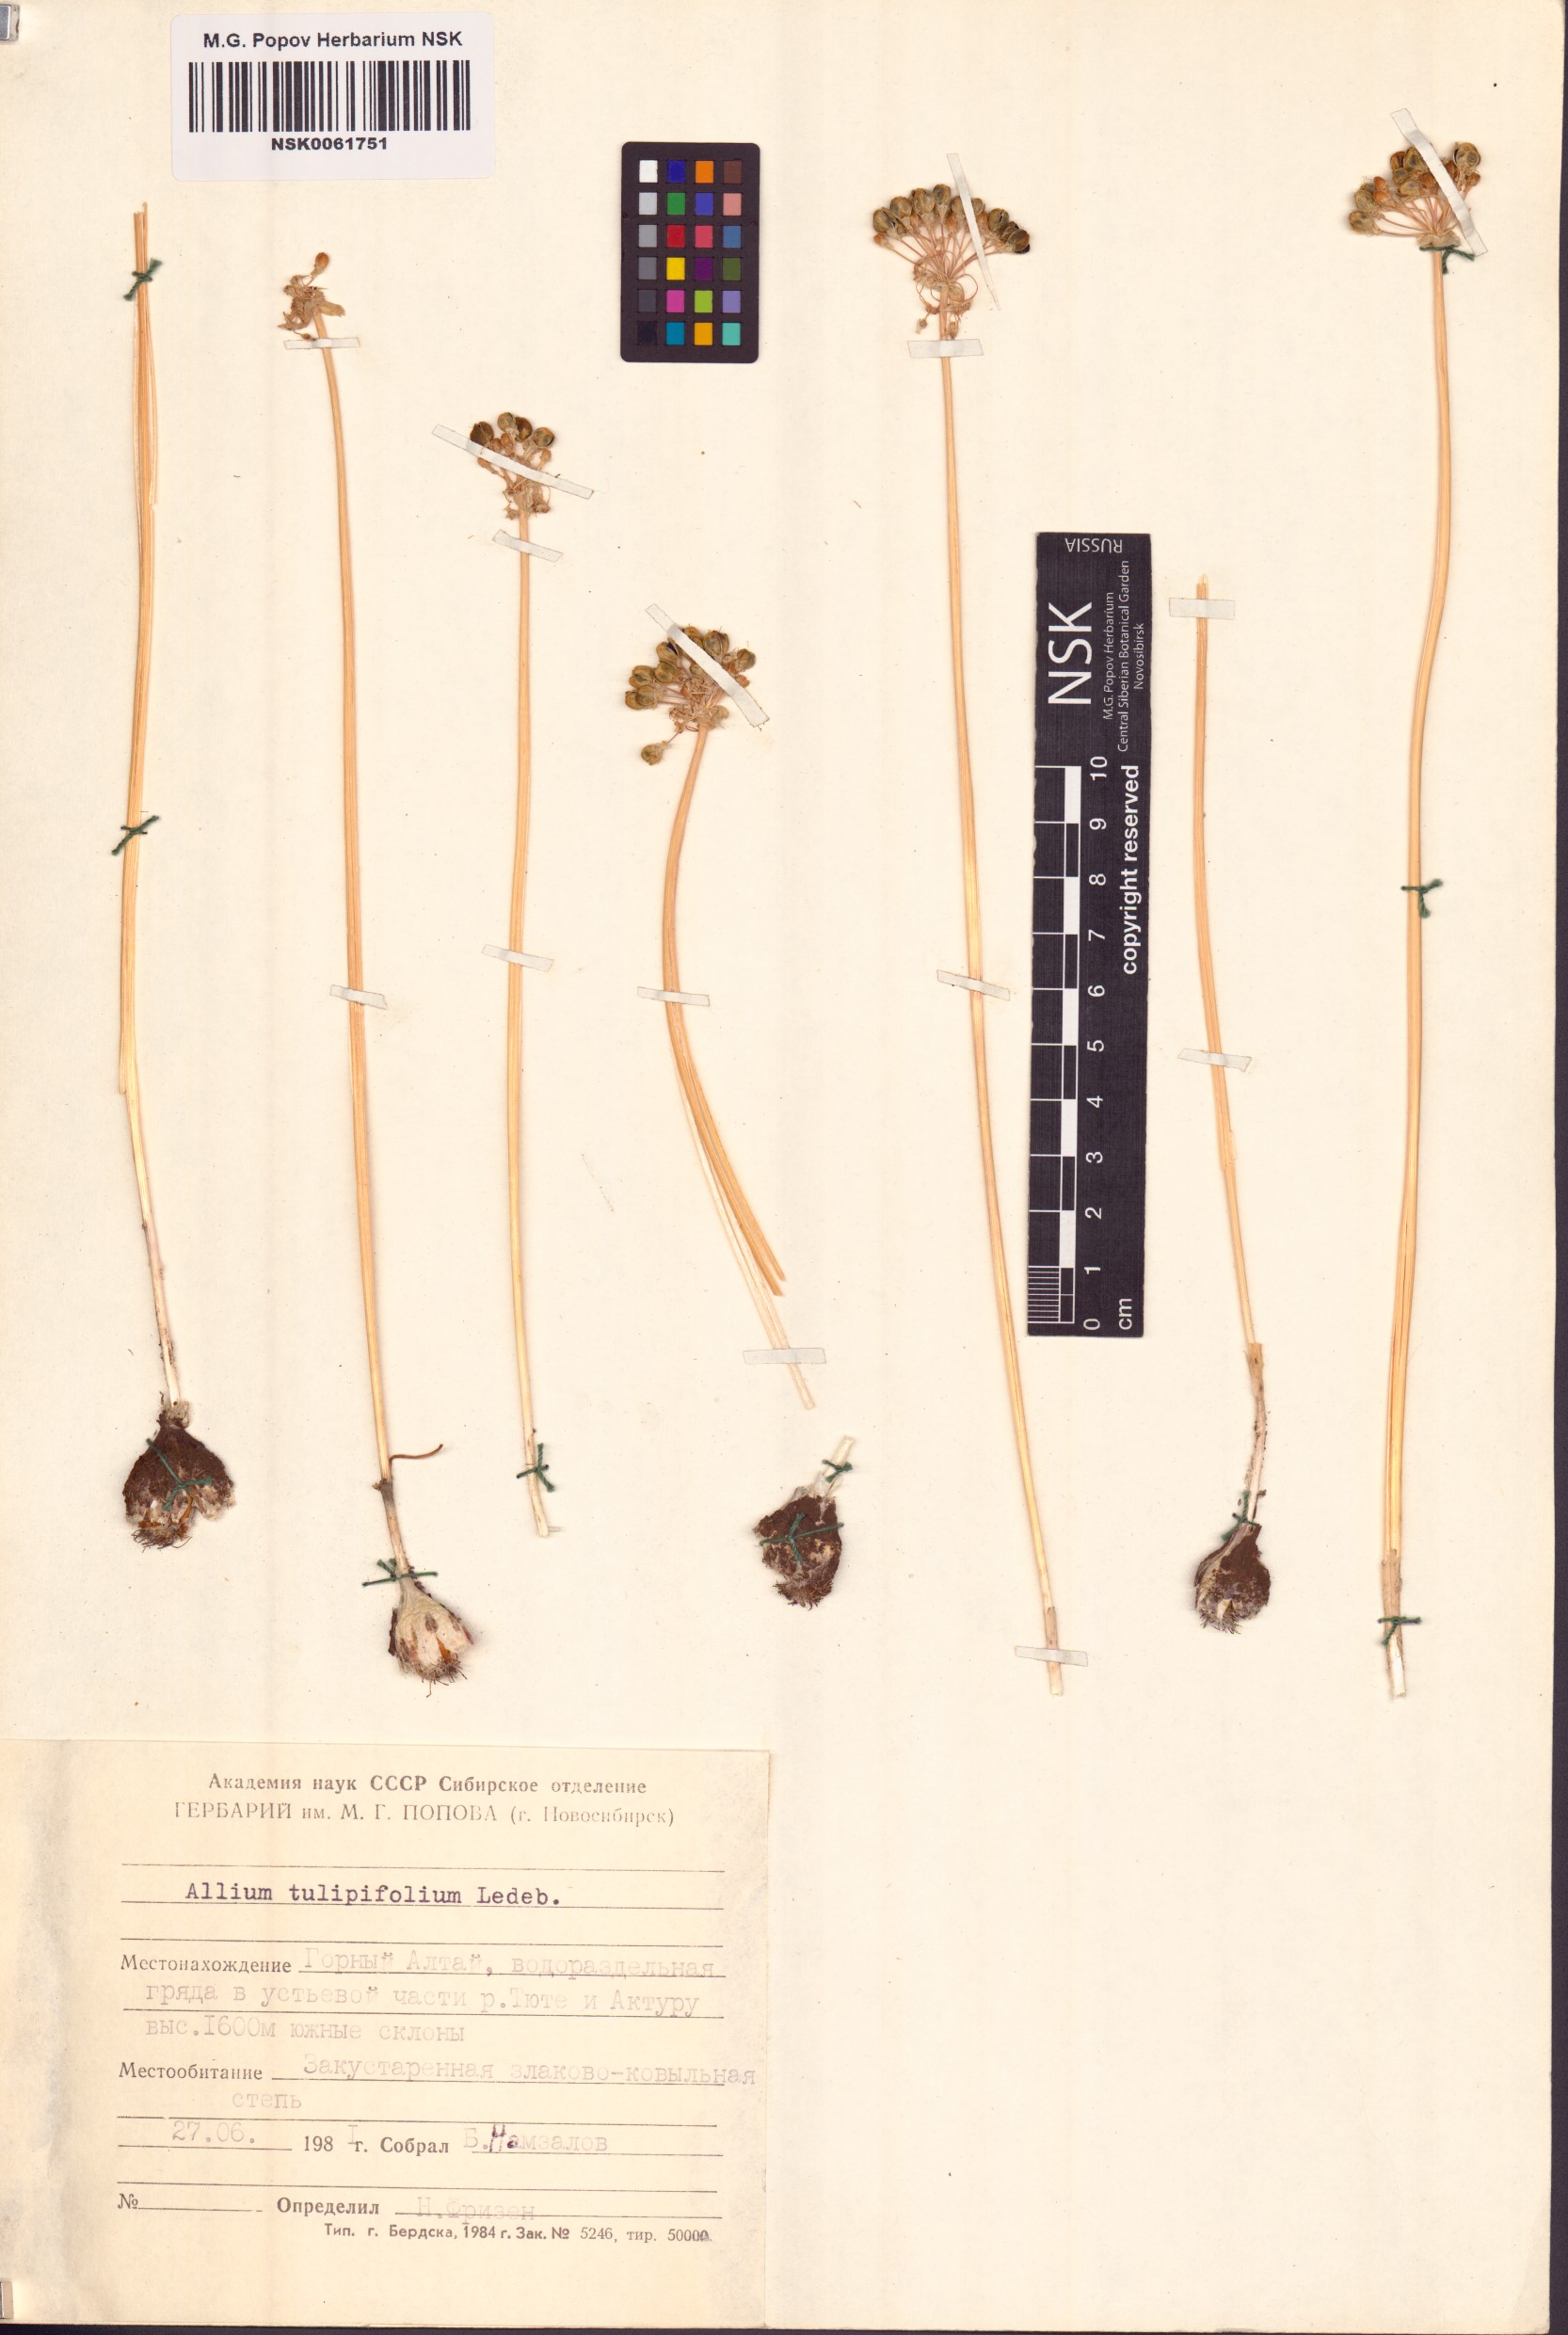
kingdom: Plantae
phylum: Tracheophyta
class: Liliopsida
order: Asparagales
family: Amaryllidaceae
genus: Allium
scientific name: Allium tulipifolium
